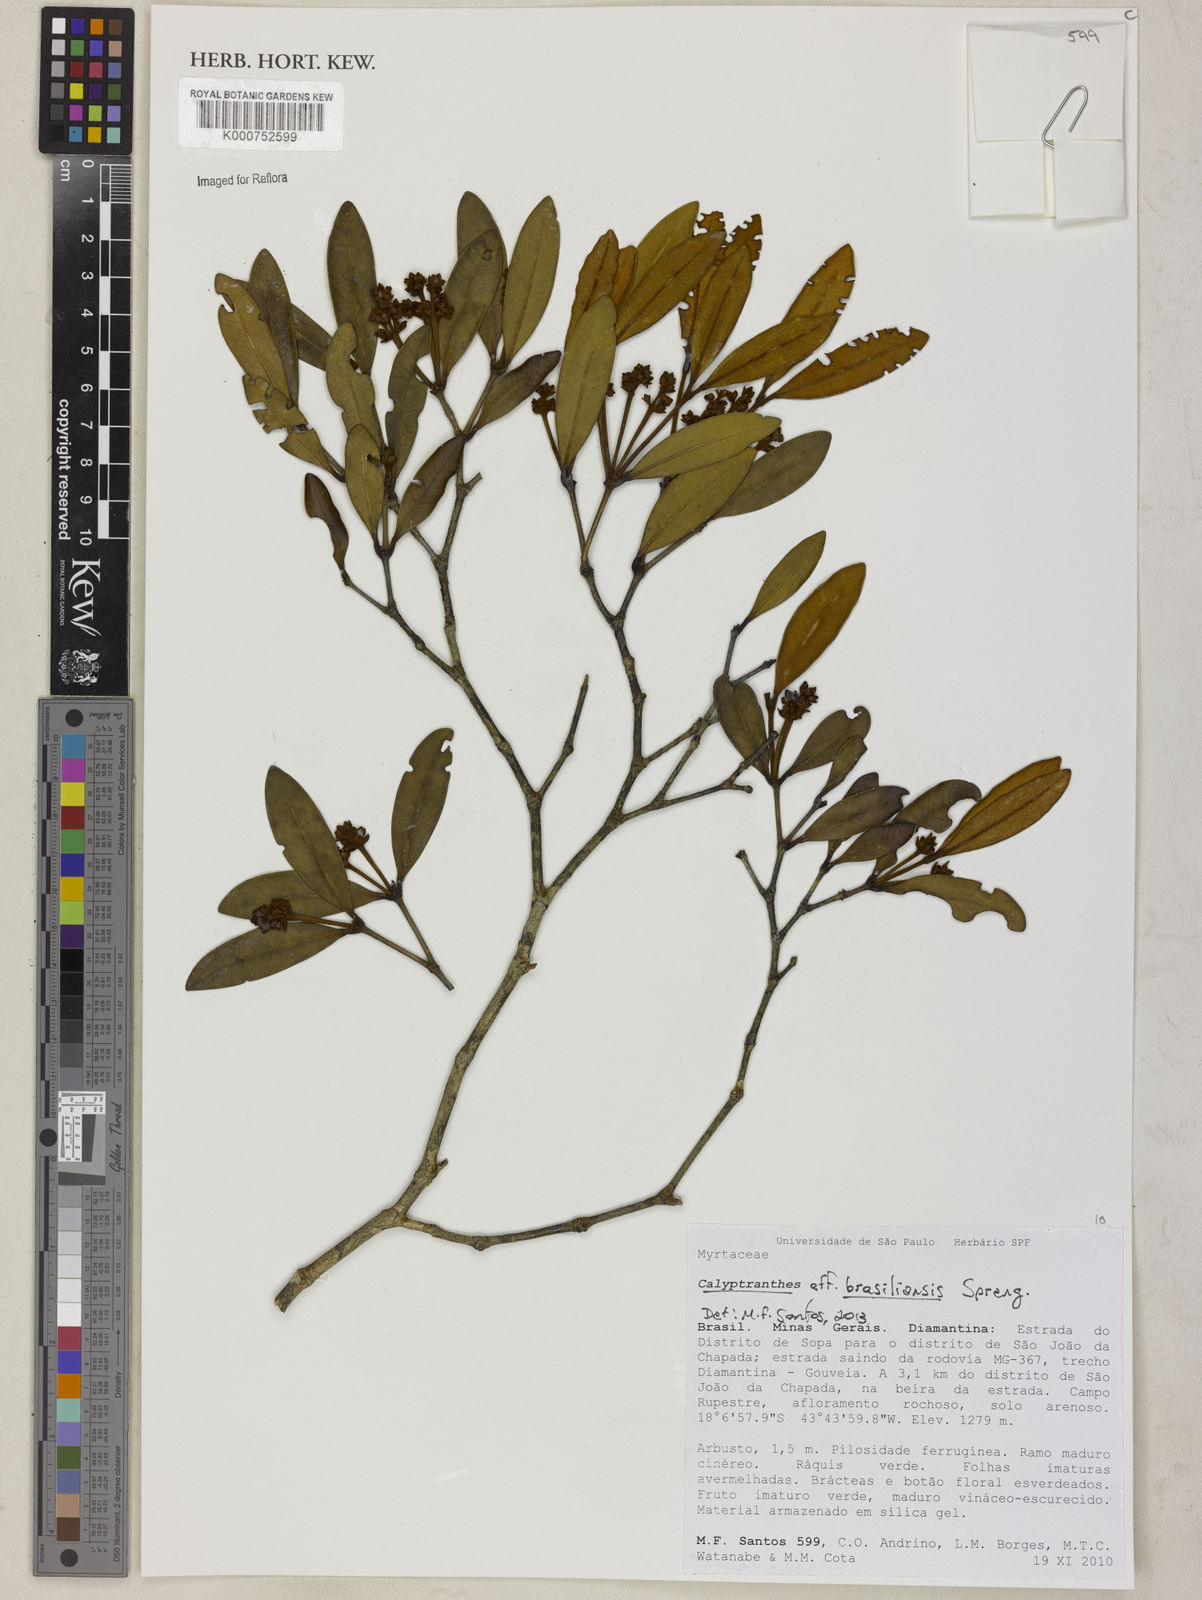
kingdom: Plantae
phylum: Tracheophyta
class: Magnoliopsida
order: Myrtales
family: Myrtaceae
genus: Myrcia
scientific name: Myrcia neobrasiliensis
